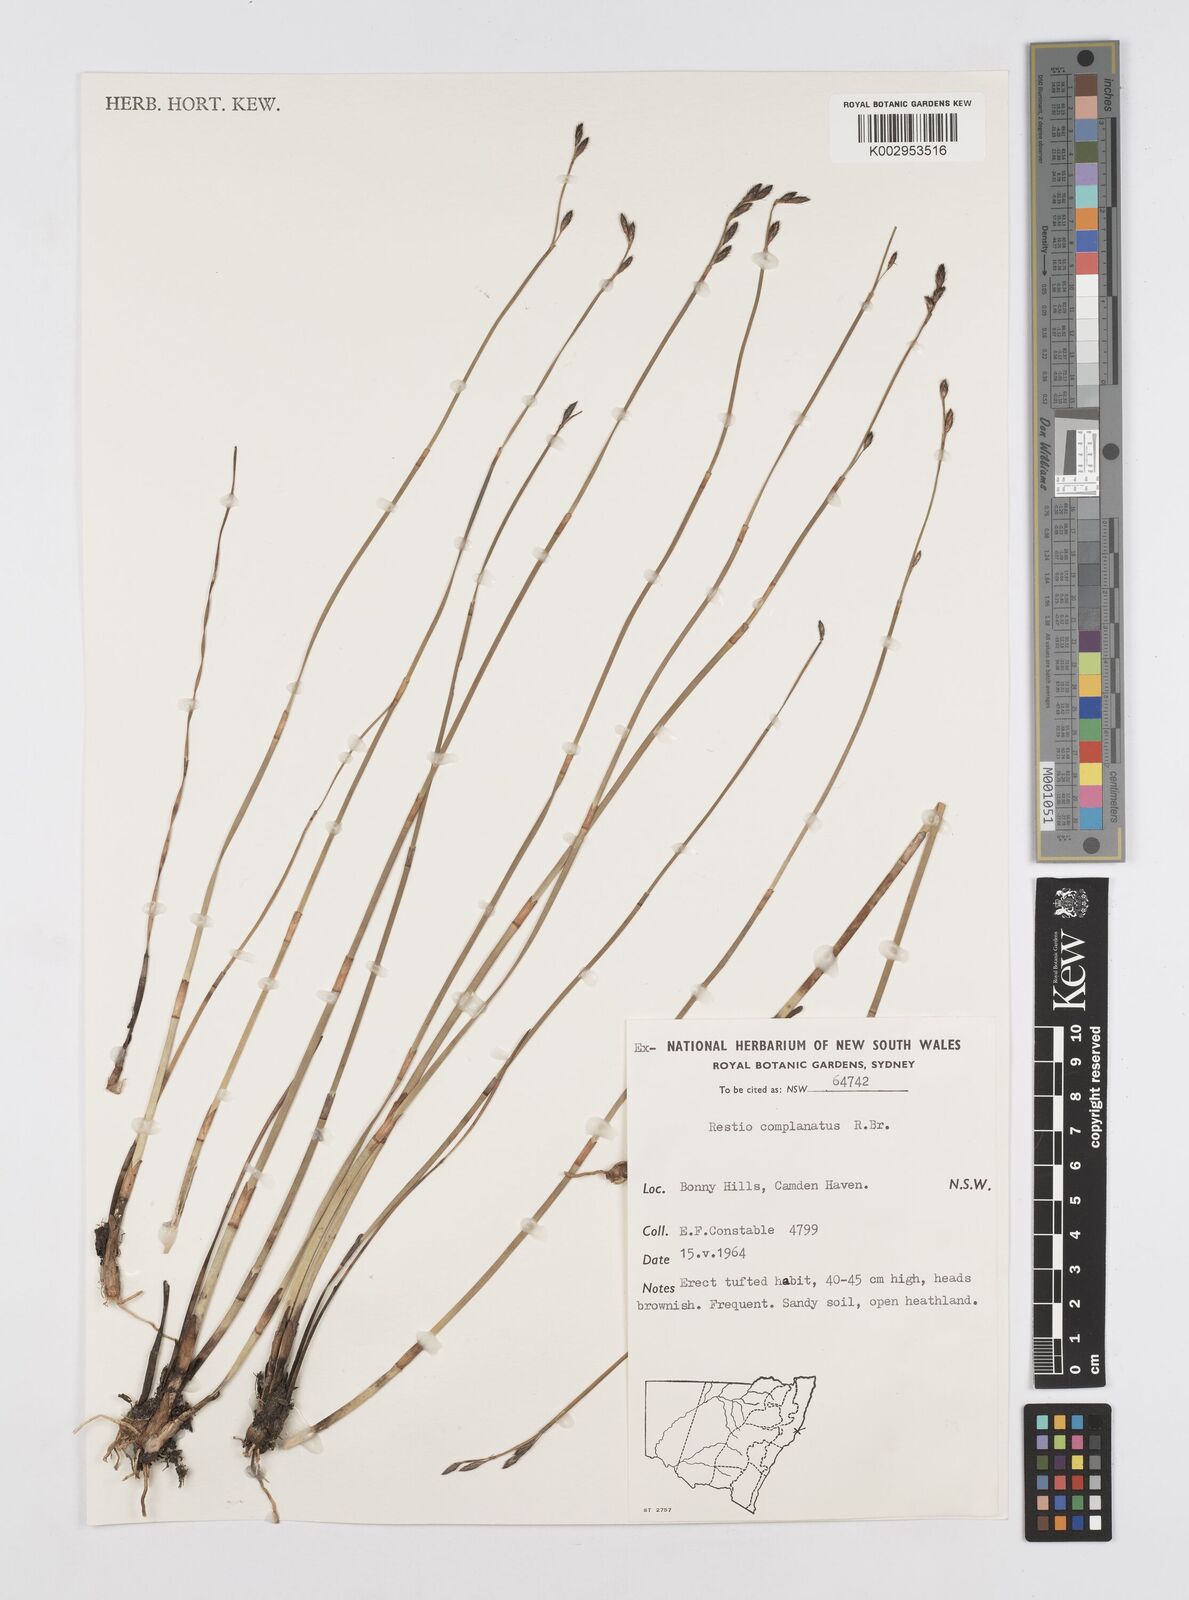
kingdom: Plantae
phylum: Tracheophyta
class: Liliopsida
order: Poales
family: Restionaceae
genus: Eurychorda
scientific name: Eurychorda complanata
